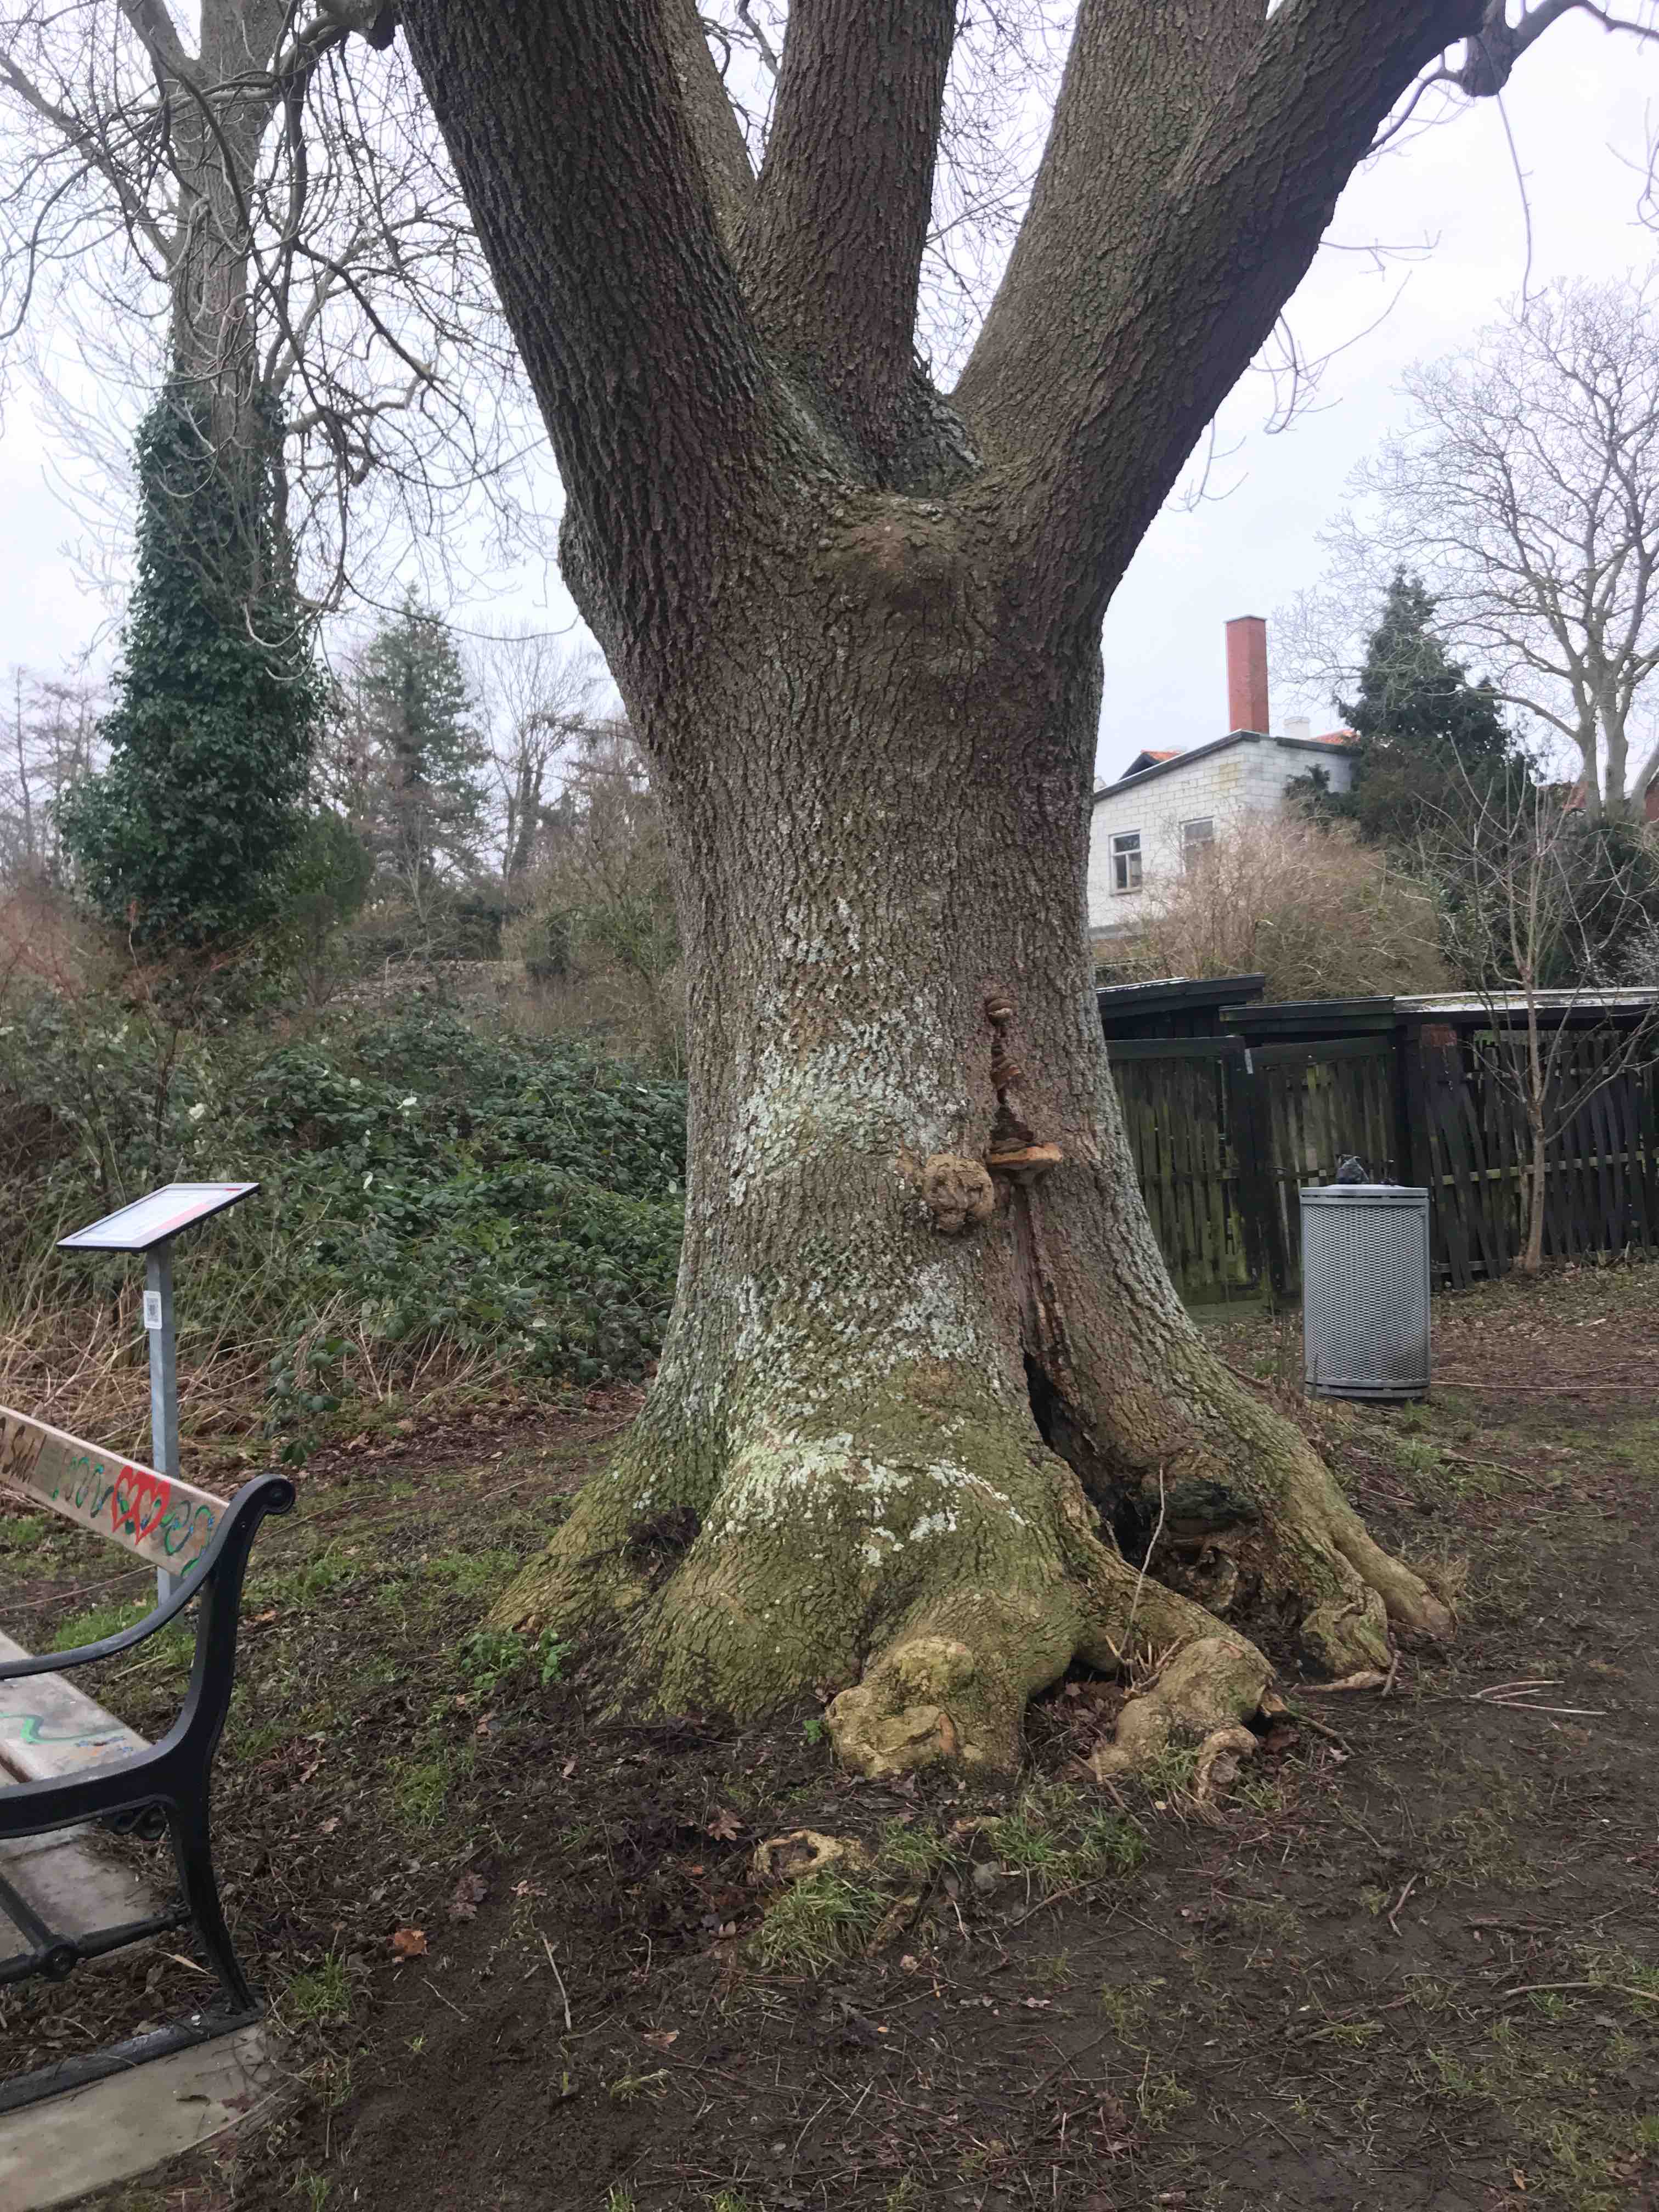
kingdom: Fungi
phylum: Basidiomycota
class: Agaricomycetes
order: Polyporales
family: Polyporaceae
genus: Ganoderma
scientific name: Ganoderma adspersum
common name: grov lakporesvamp
